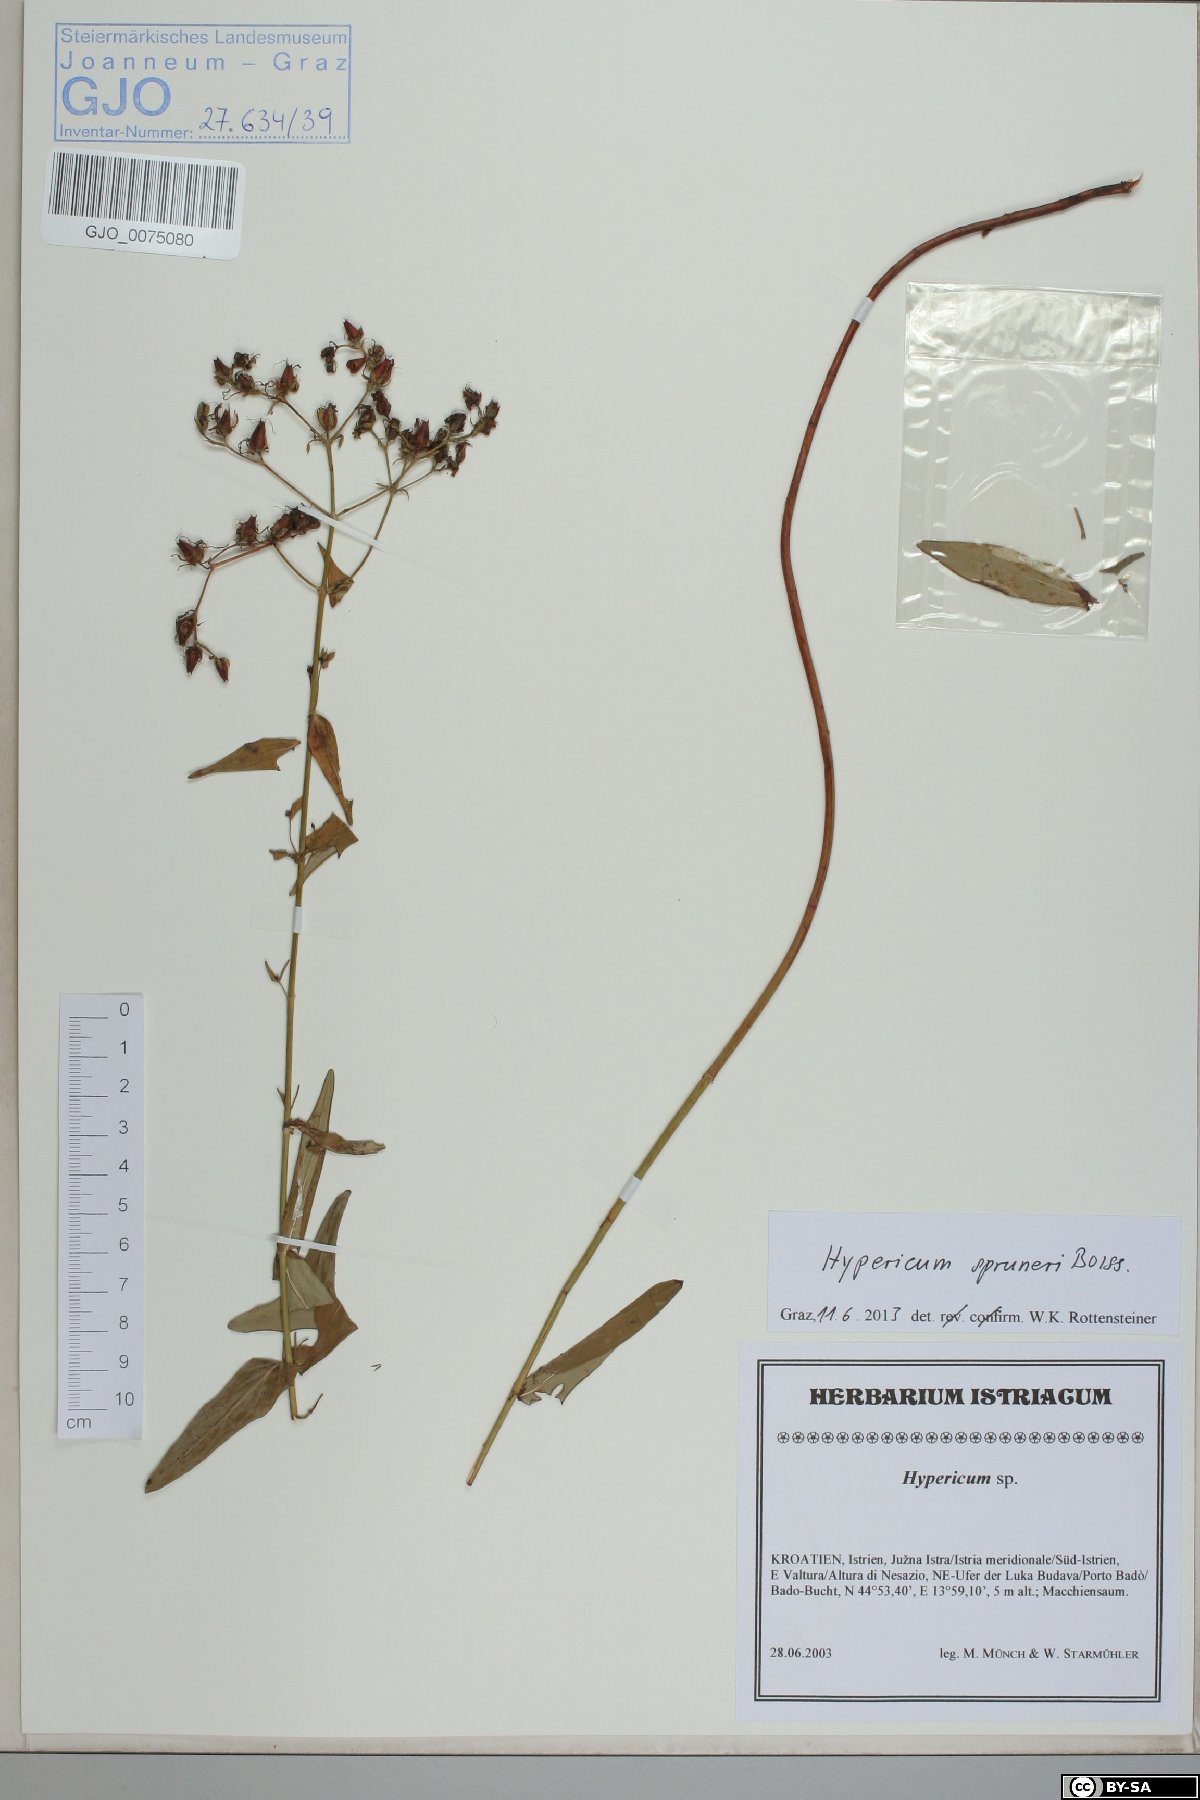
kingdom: Plantae
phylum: Tracheophyta
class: Magnoliopsida
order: Malpighiales
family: Hypericaceae
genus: Hypericum
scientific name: Hypericum spruneri
